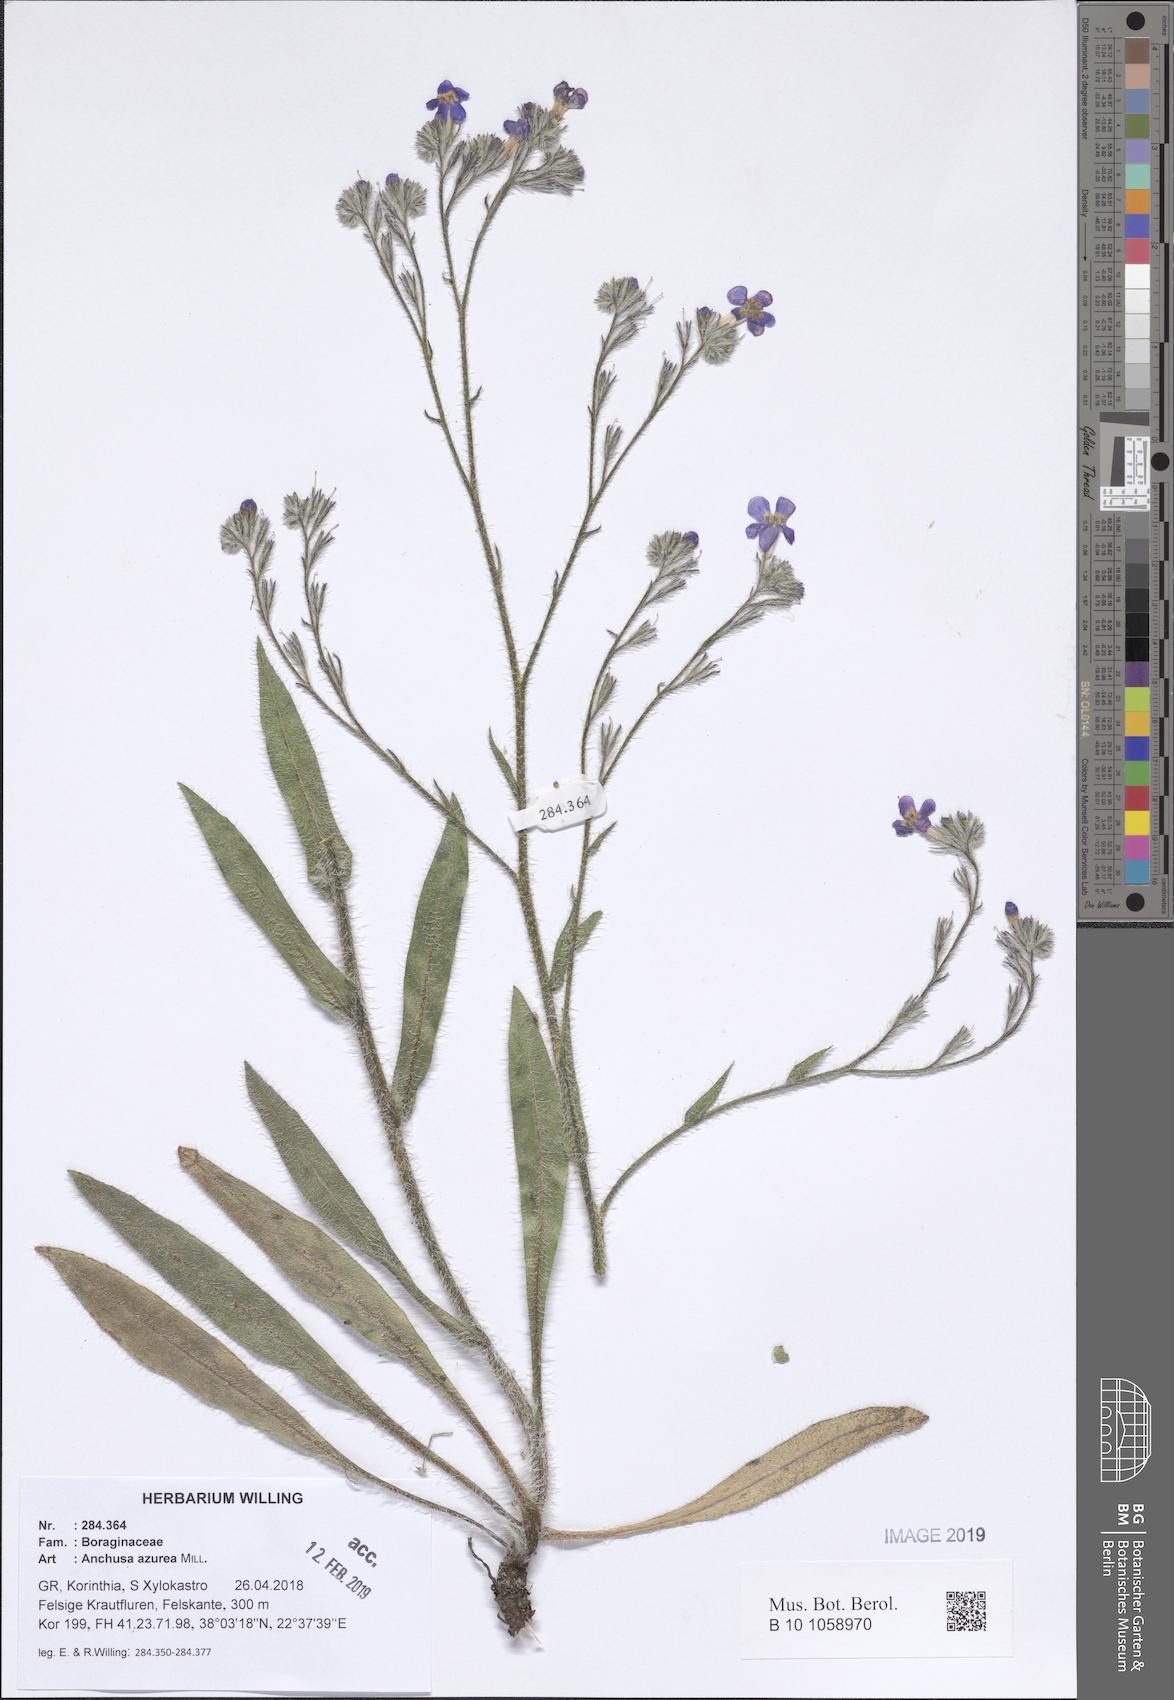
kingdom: Plantae
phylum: Tracheophyta
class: Magnoliopsida
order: Boraginales
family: Boraginaceae
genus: Anchusa
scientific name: Anchusa azurea
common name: Garden anchusa
